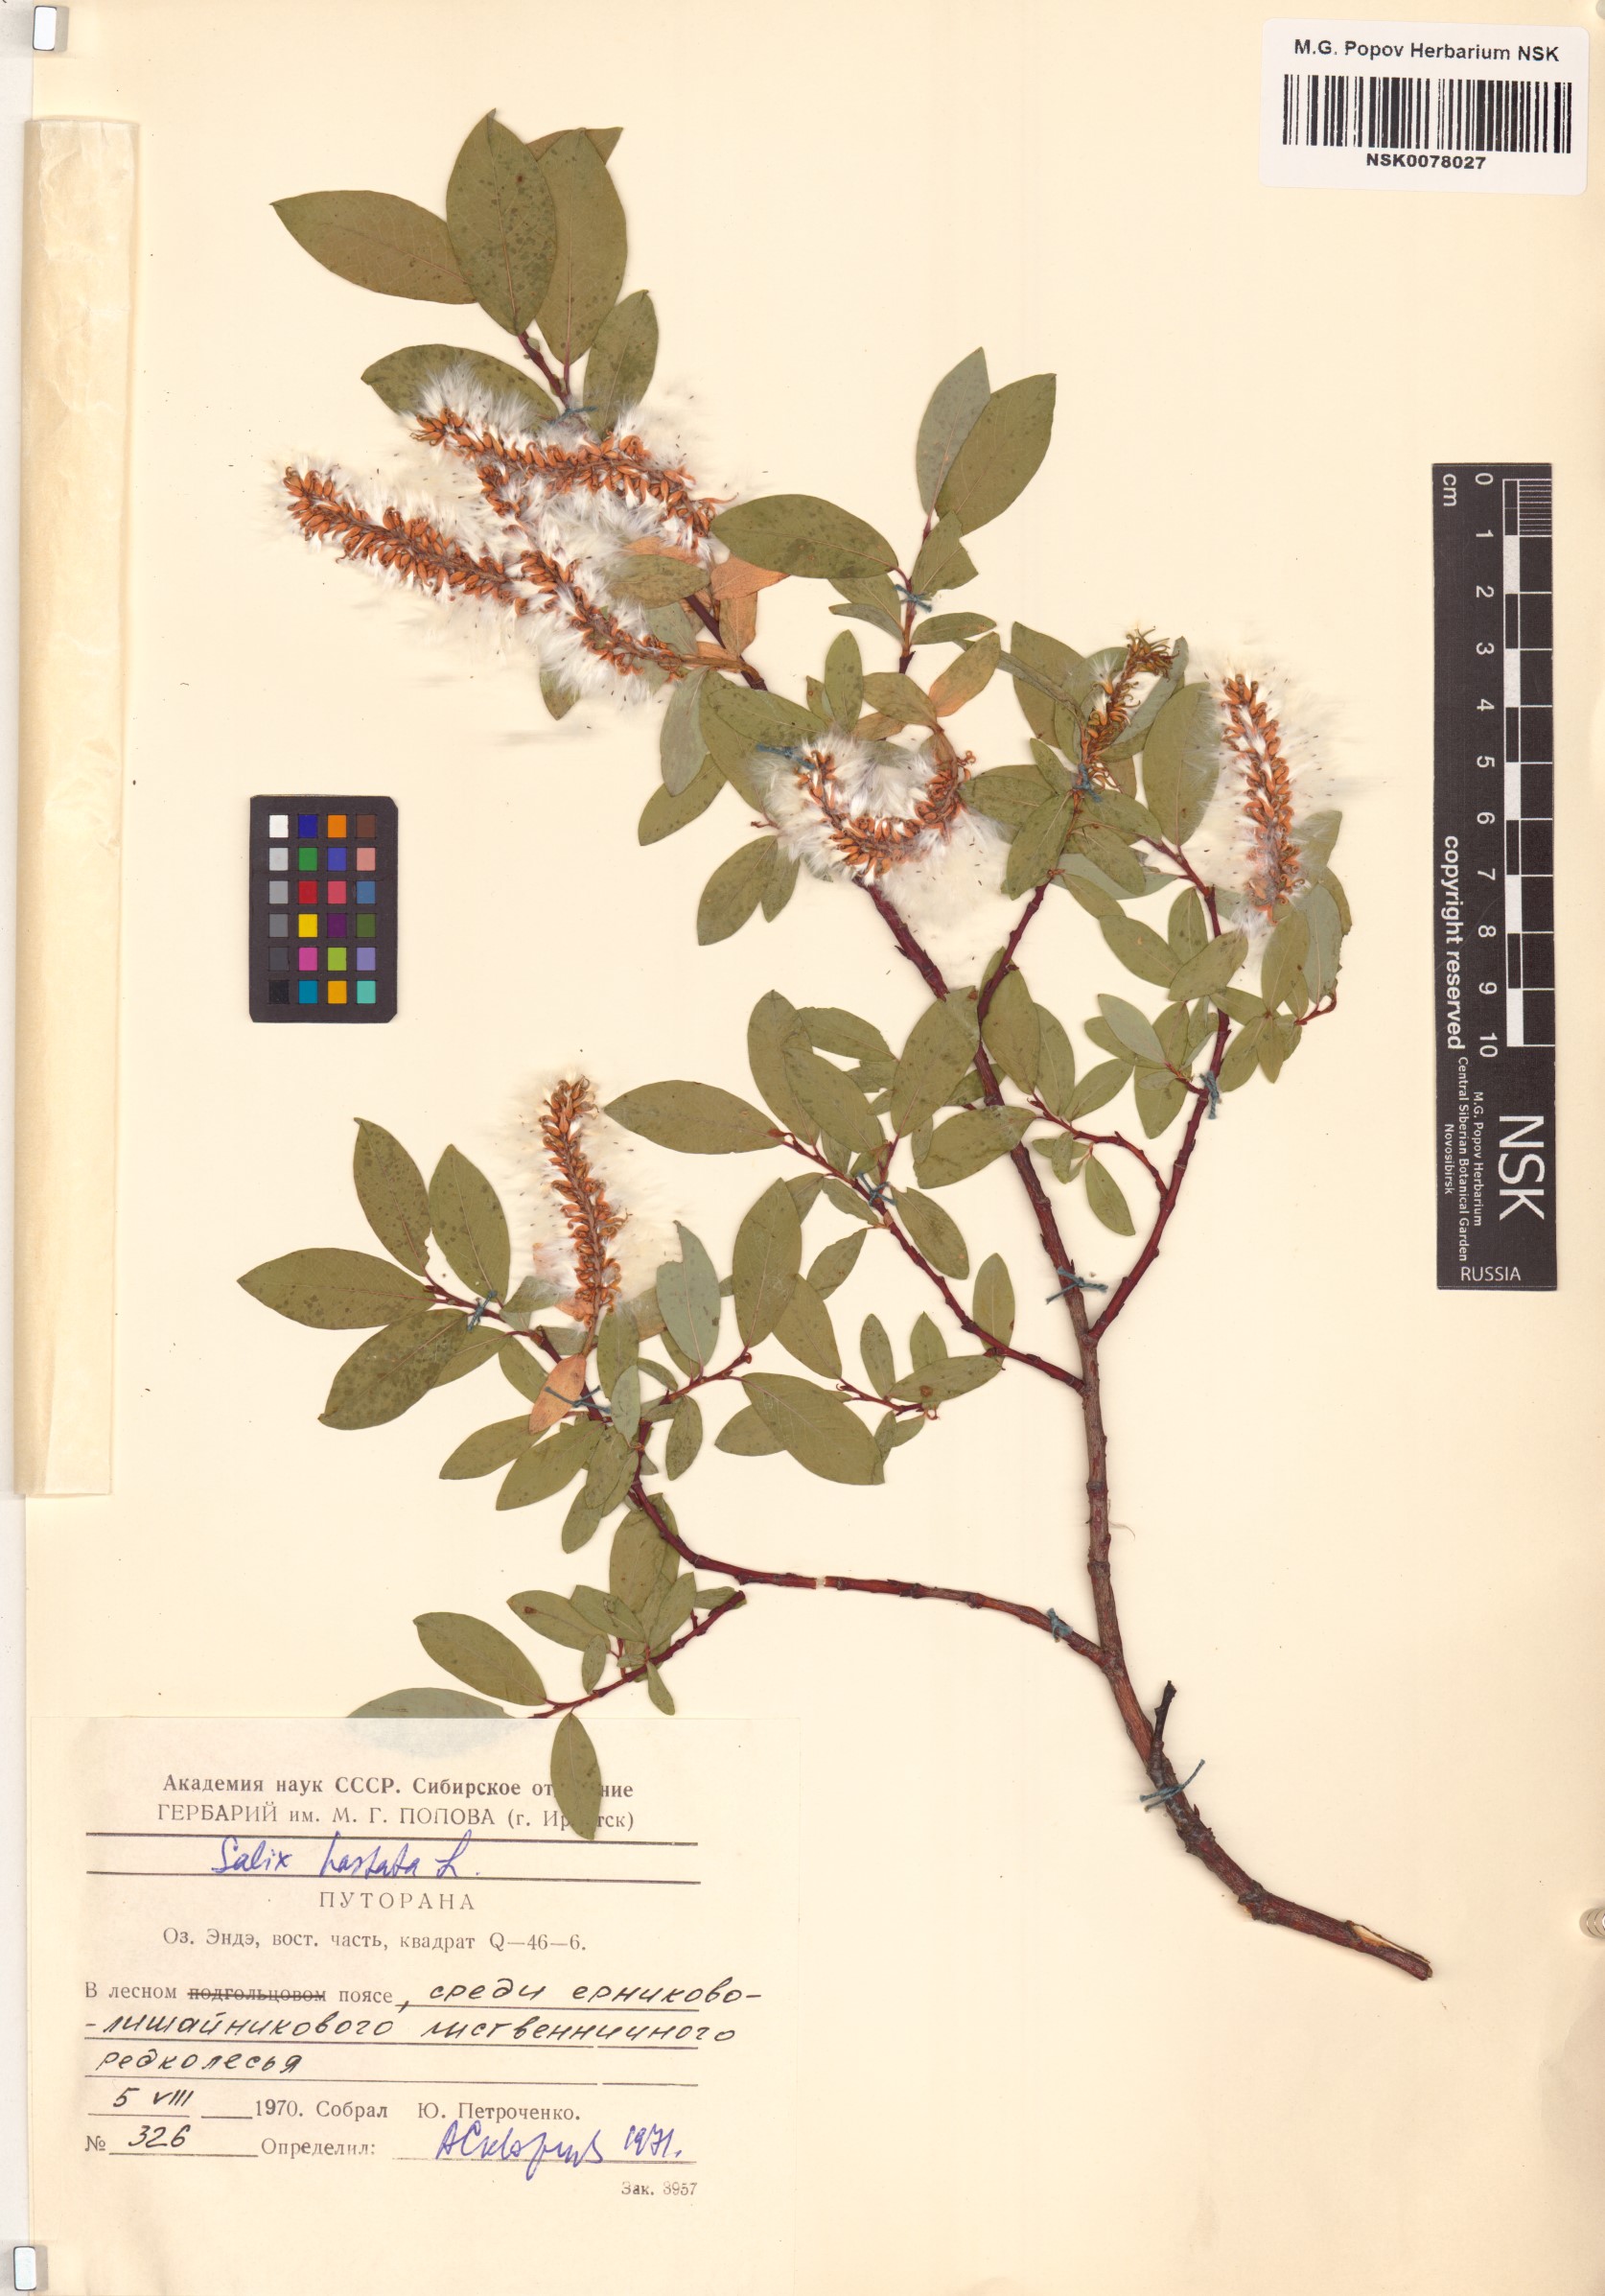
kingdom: Plantae
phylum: Tracheophyta
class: Magnoliopsida
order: Malpighiales
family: Salicaceae
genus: Salix
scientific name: Salix hastata
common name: Halberd willow
